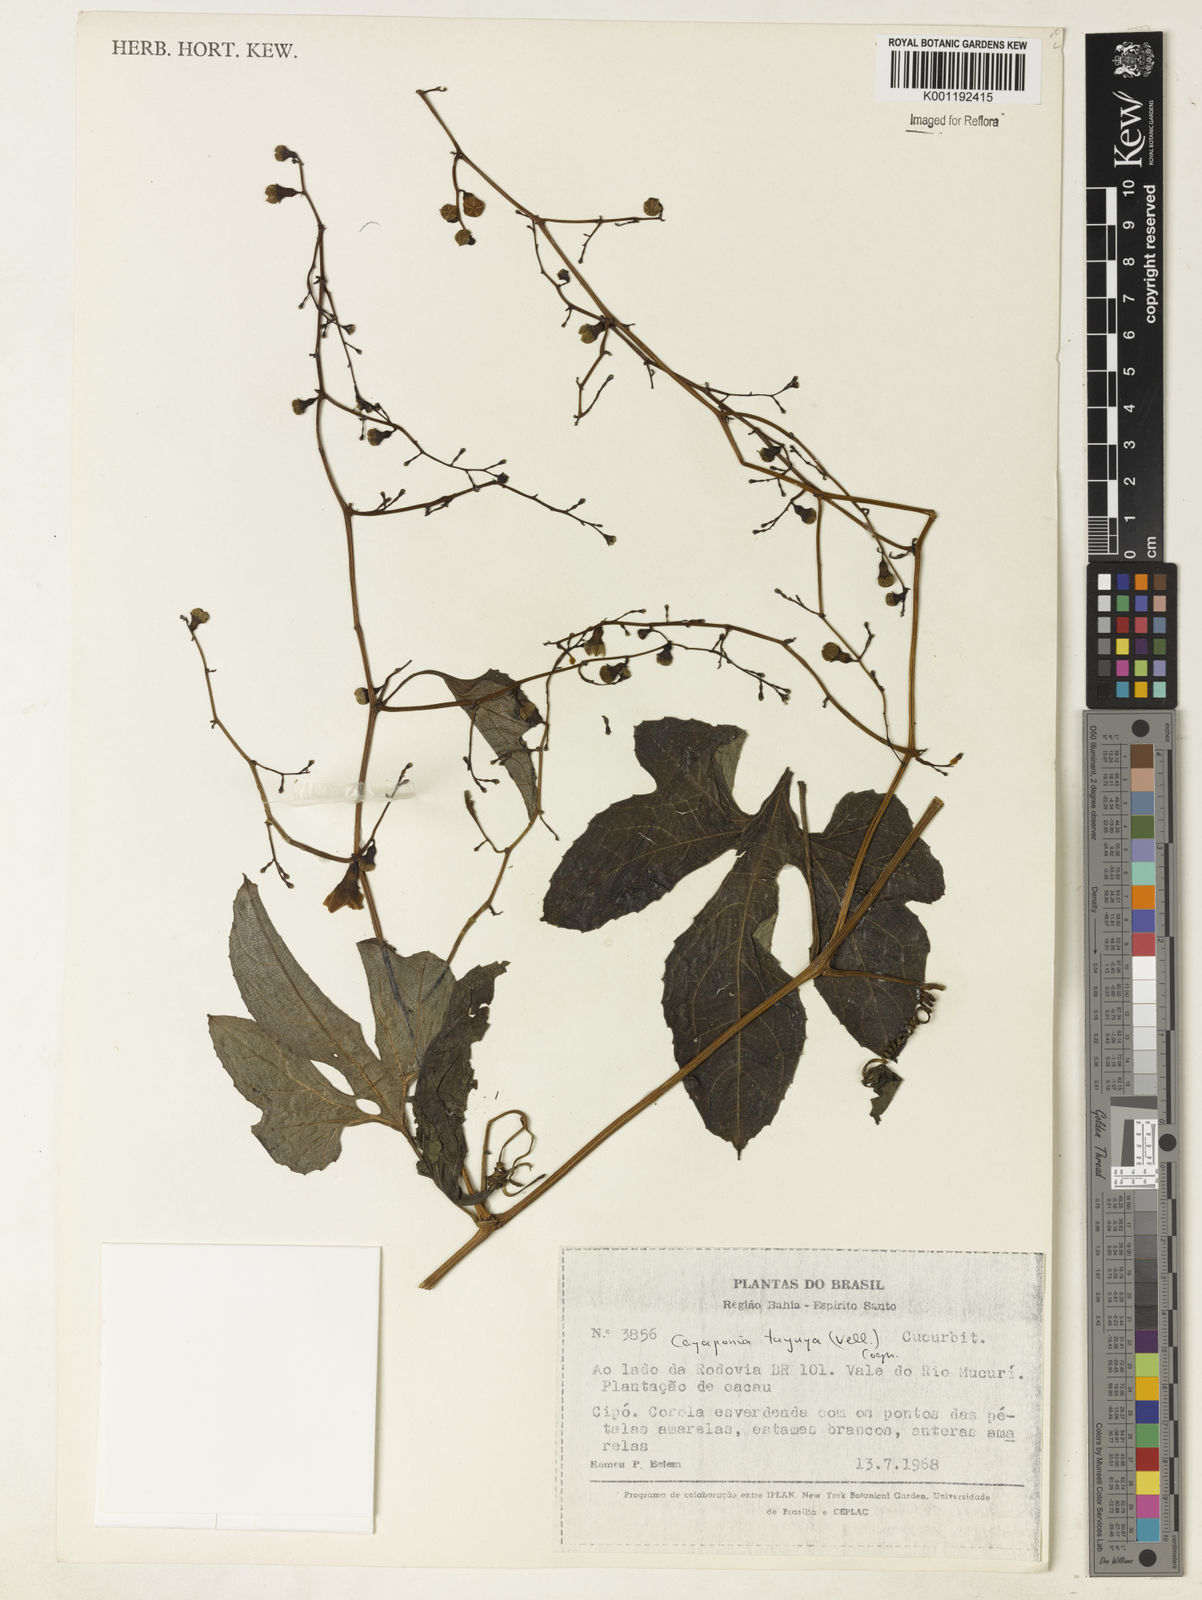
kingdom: Plantae
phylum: Tracheophyta
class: Magnoliopsida
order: Cucurbitales
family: Cucurbitaceae
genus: Cayaponia
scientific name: Cayaponia tayuya
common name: Tayuya
